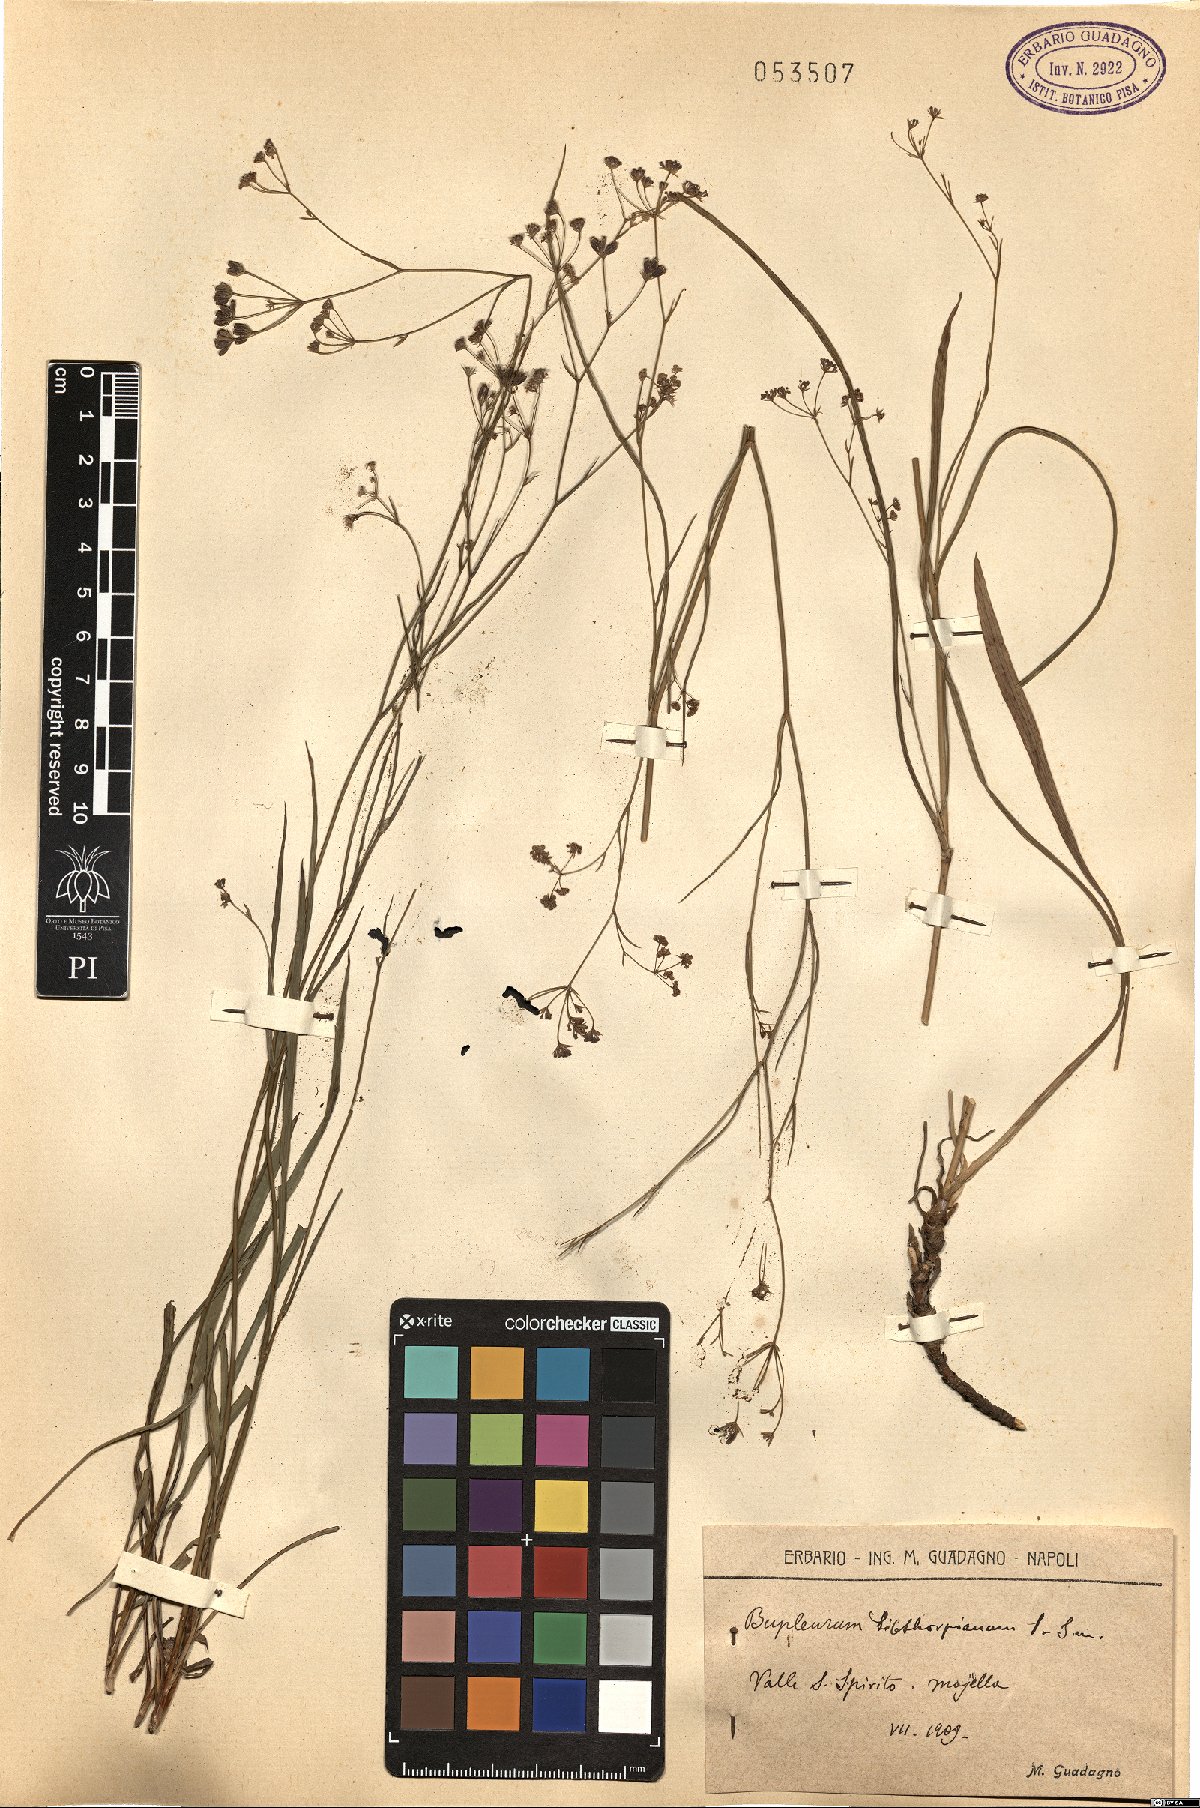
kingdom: Plantae
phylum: Tracheophyta
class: Magnoliopsida
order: Apiales
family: Apiaceae
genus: Bupleurum
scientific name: Bupleurum falcatum
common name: Sickle-leaved hare's-ear
